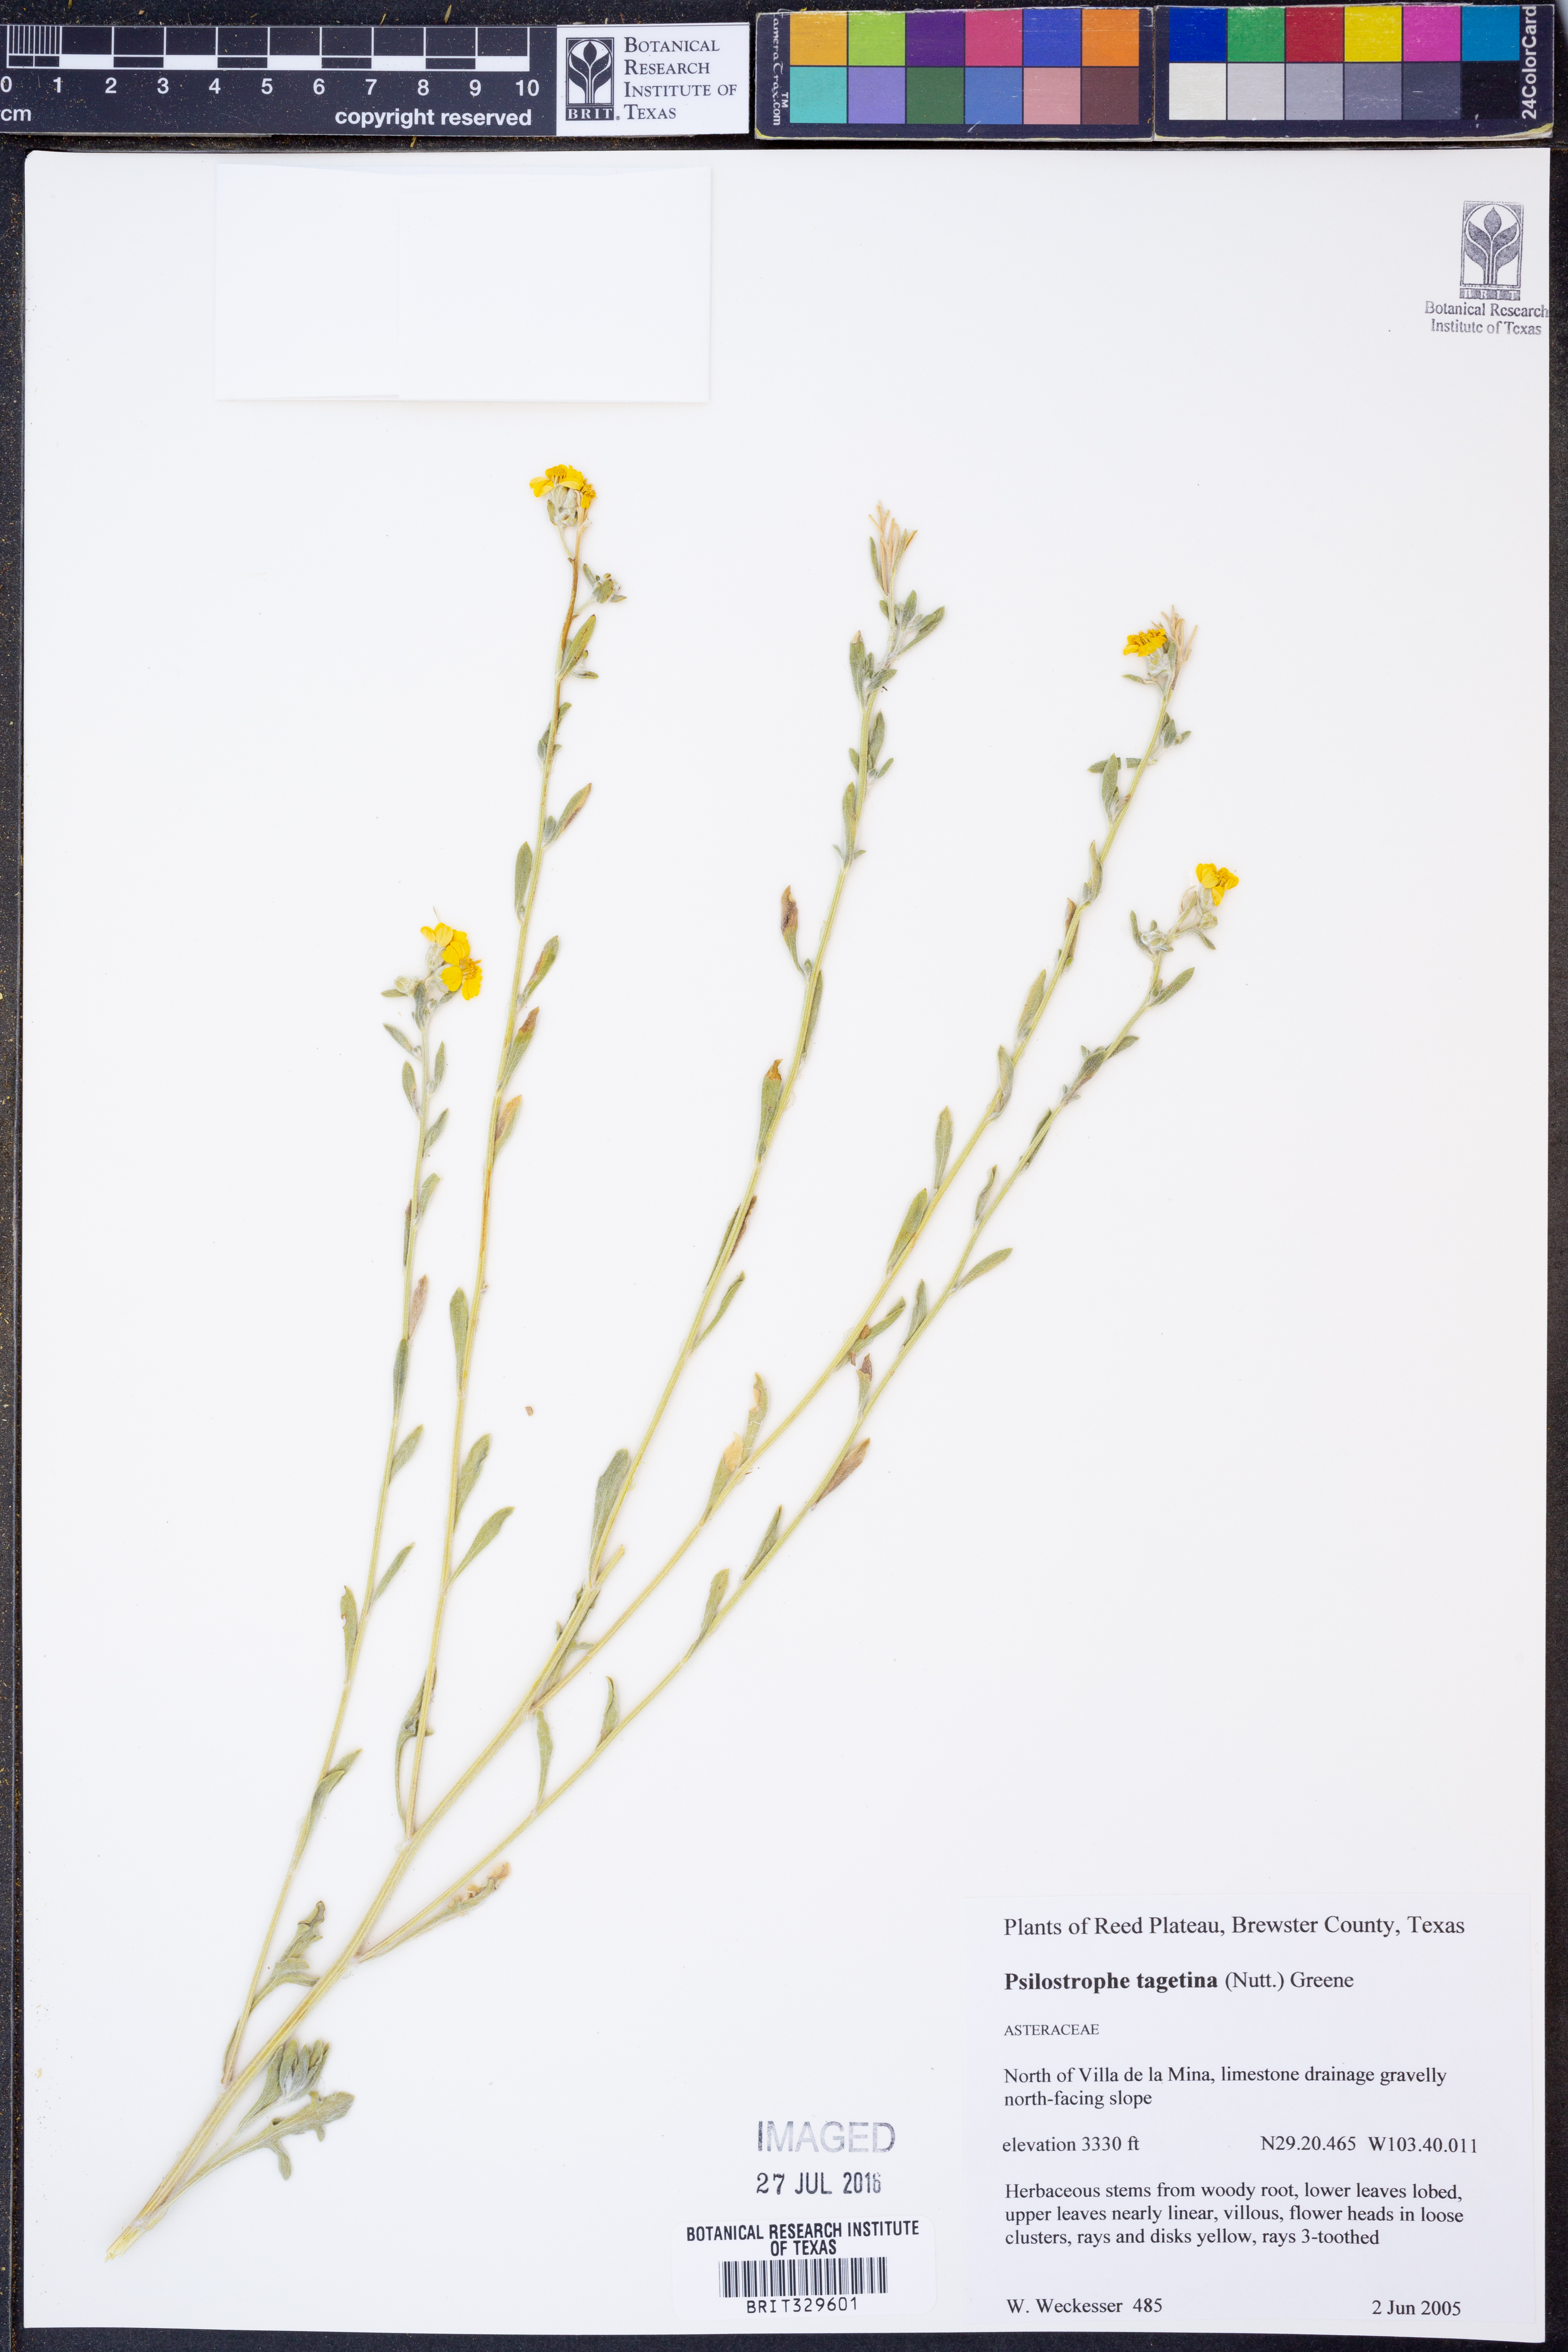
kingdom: Plantae
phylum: Tracheophyta
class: Magnoliopsida
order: Asterales
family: Asteraceae
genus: Psilostrophe
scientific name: Psilostrophe tagetina
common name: Marigold paper-flower
